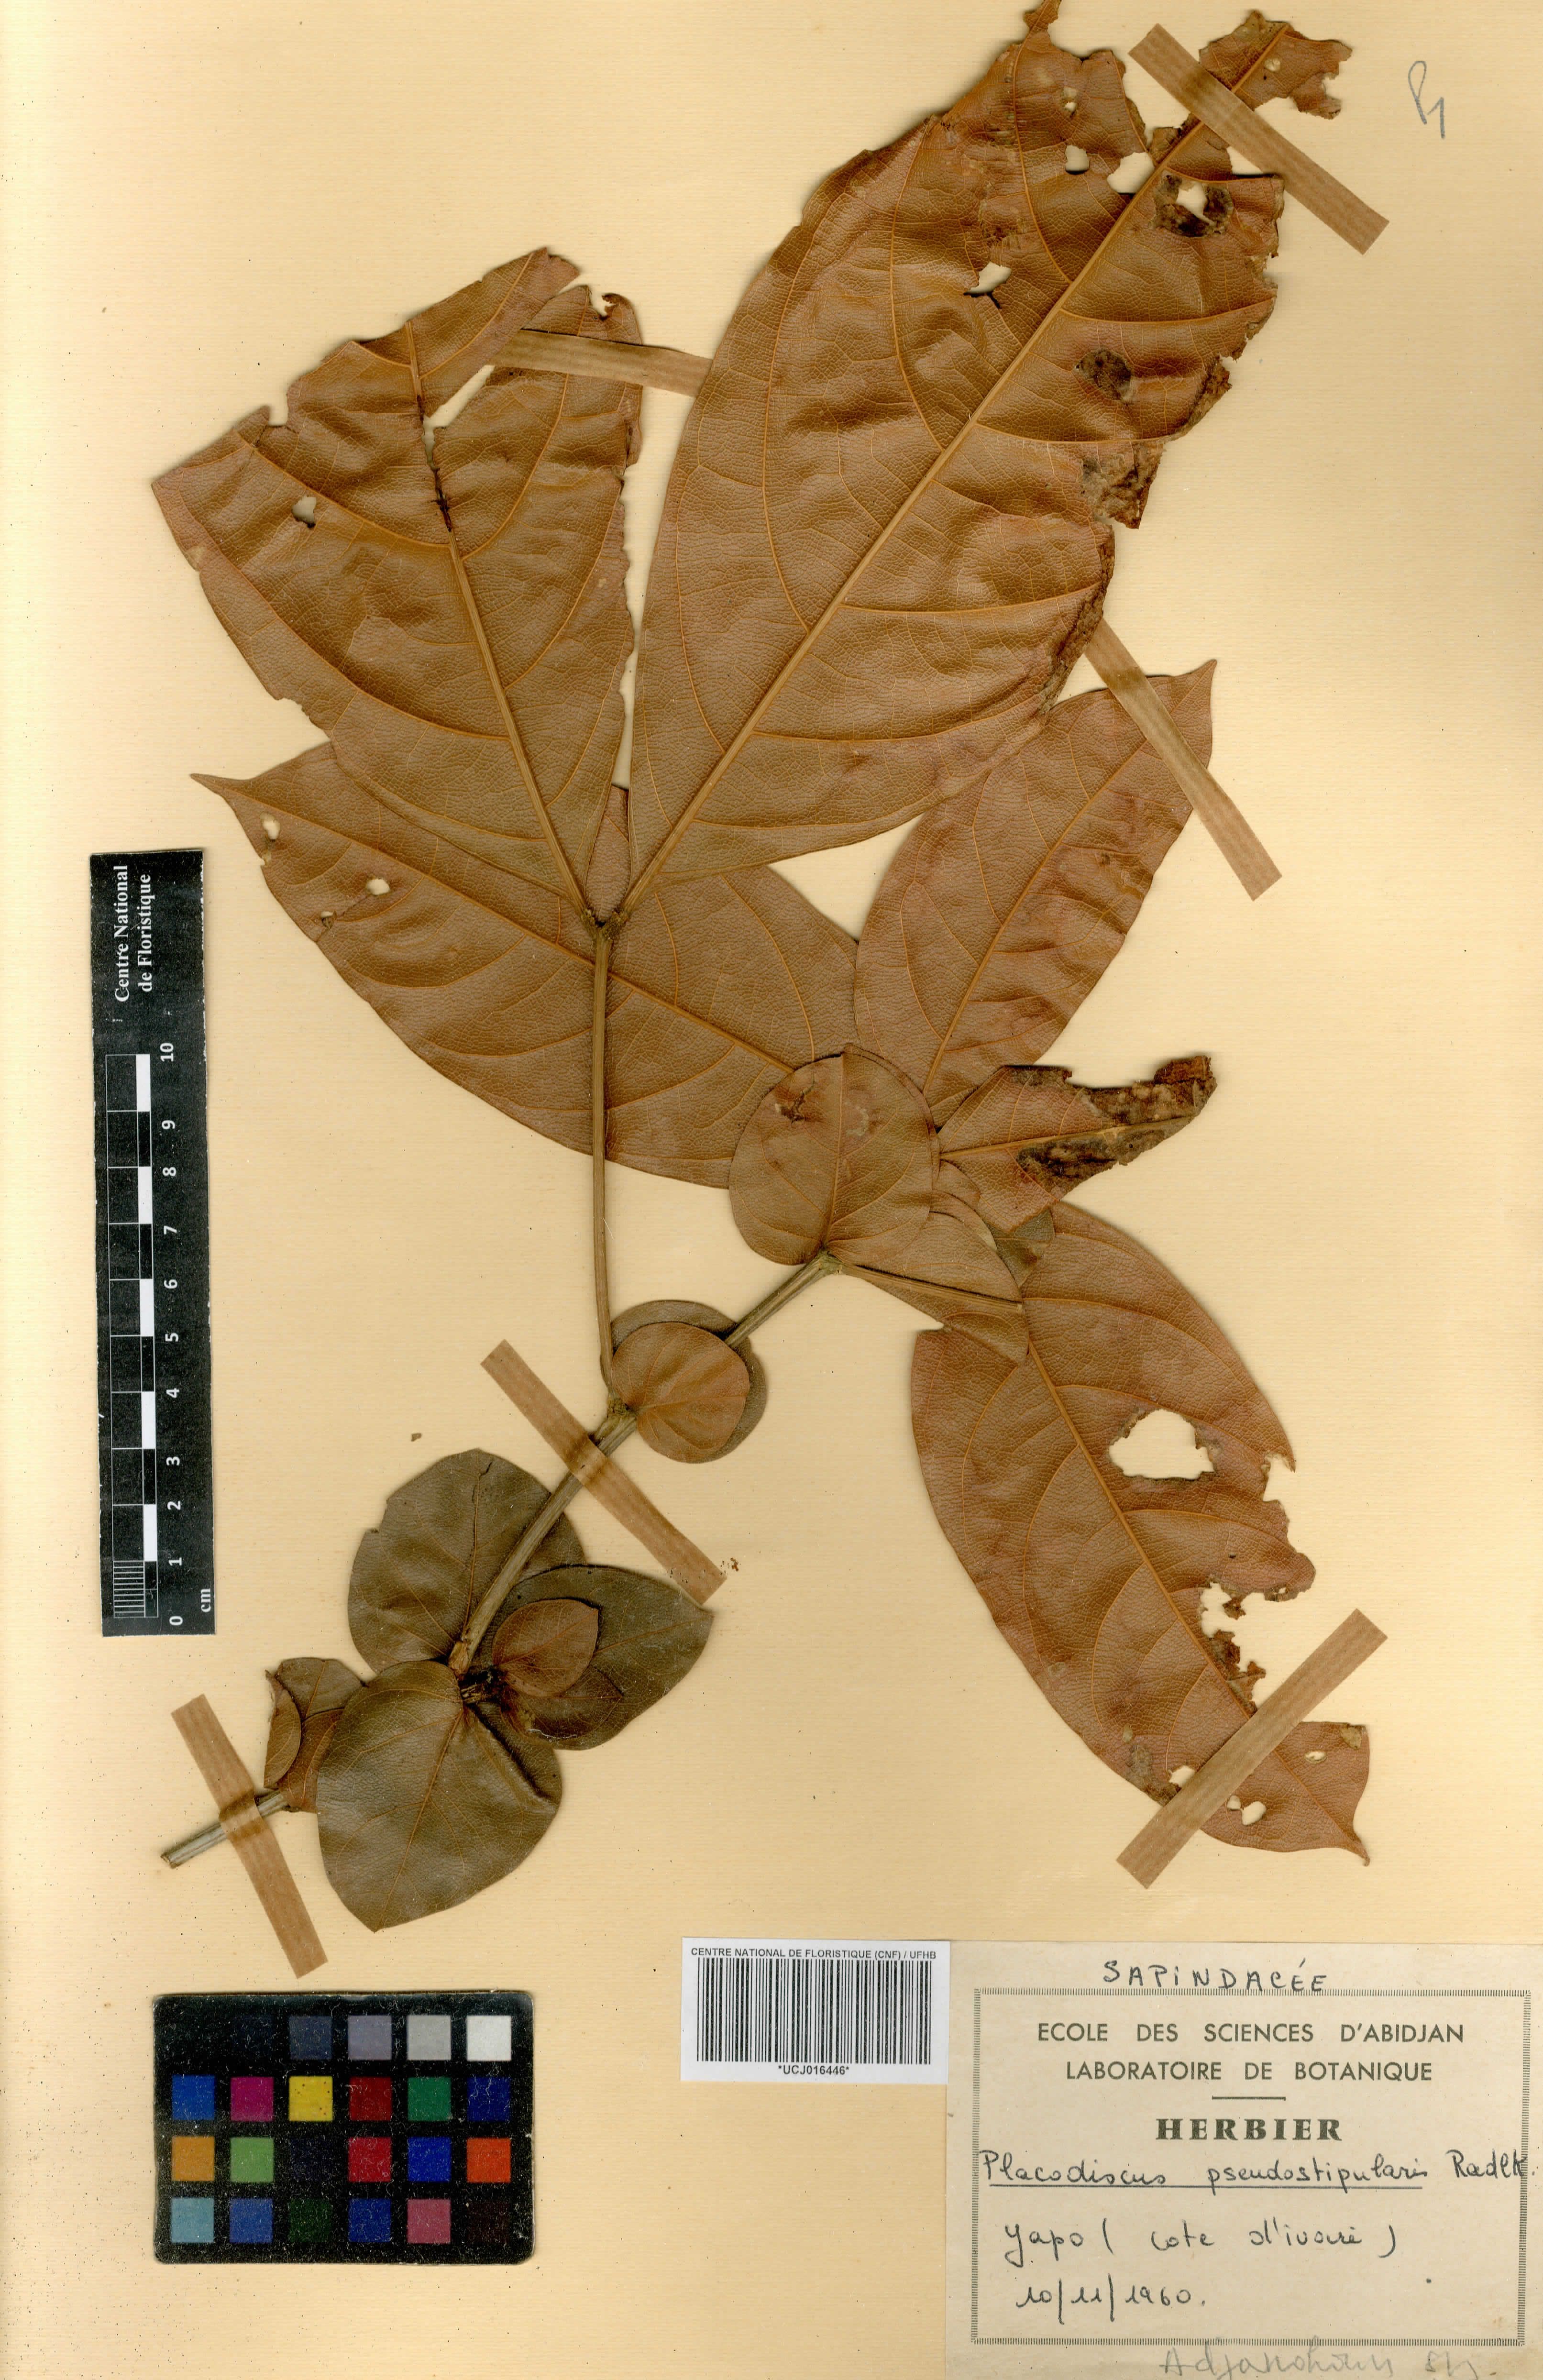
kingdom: Plantae
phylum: Tracheophyta
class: Magnoliopsida
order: Sapindales
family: Sapindaceae
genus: Placodiscus
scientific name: Placodiscus pseudostipularis
